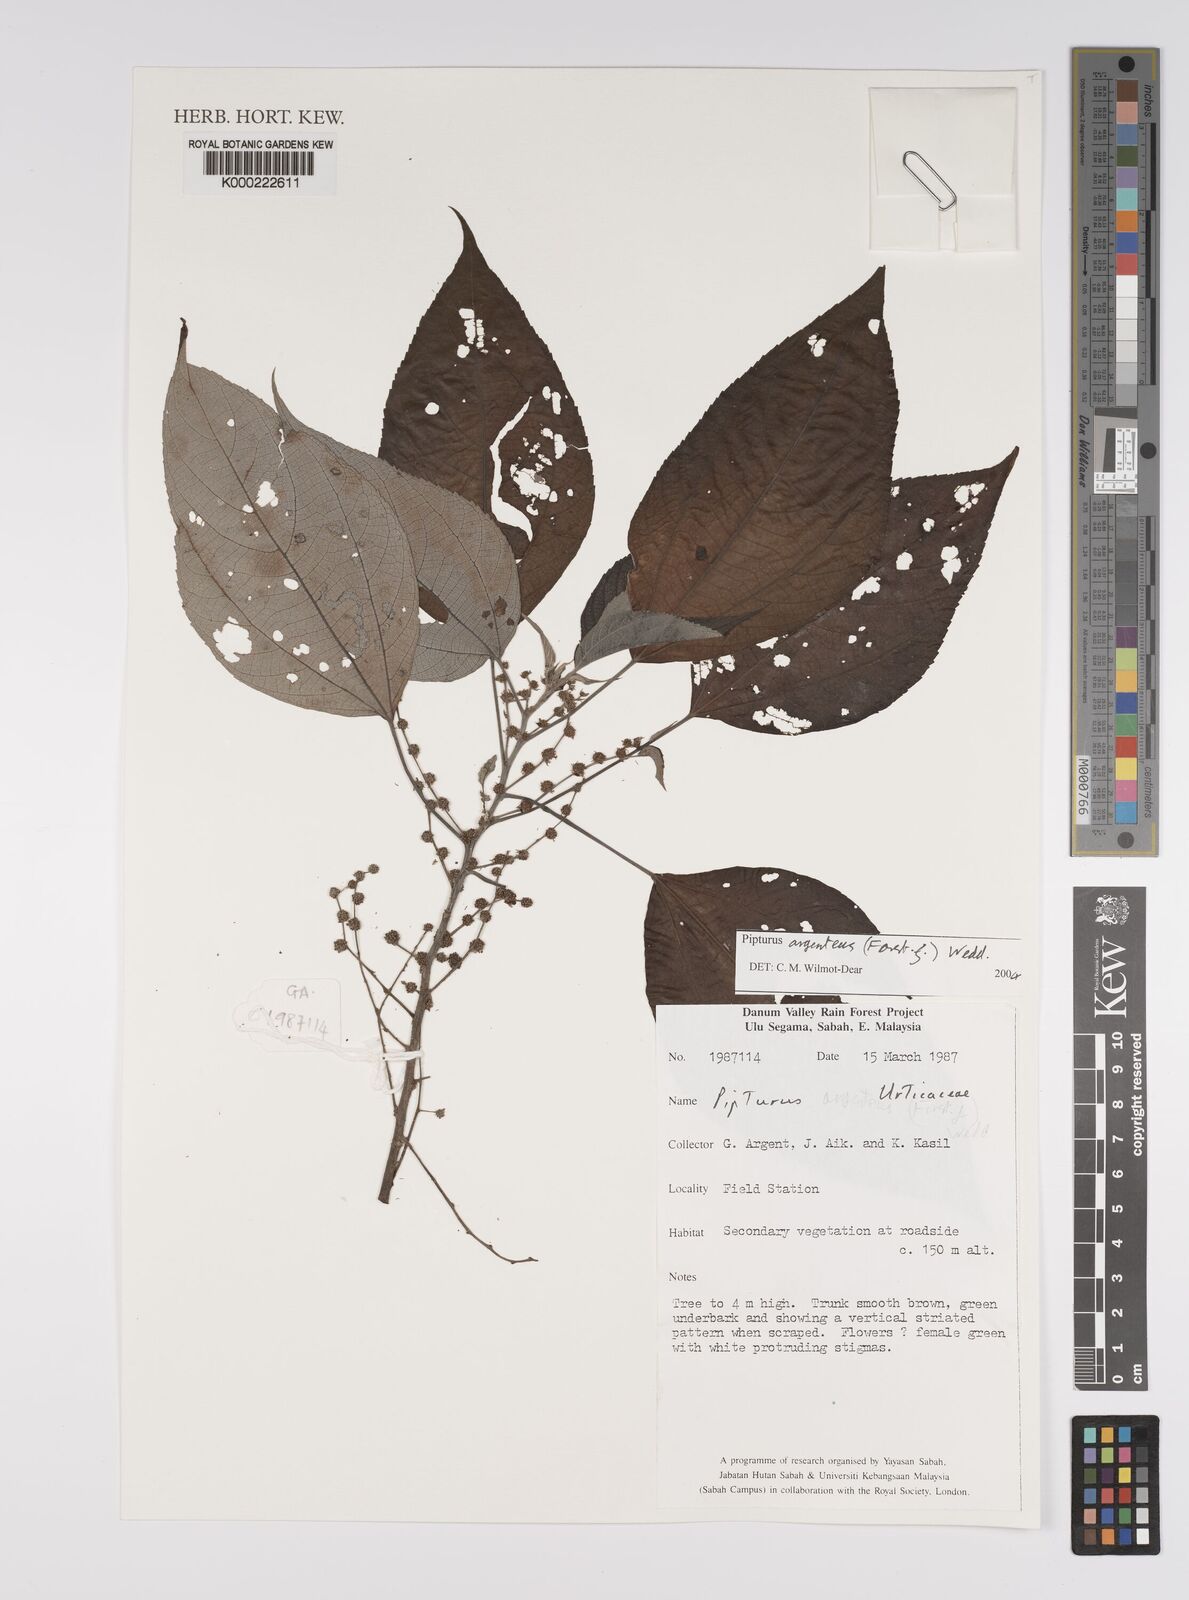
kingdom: Plantae
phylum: Tracheophyta
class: Magnoliopsida
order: Rosales
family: Urticaceae
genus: Pipturus
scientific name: Pipturus argenteus
